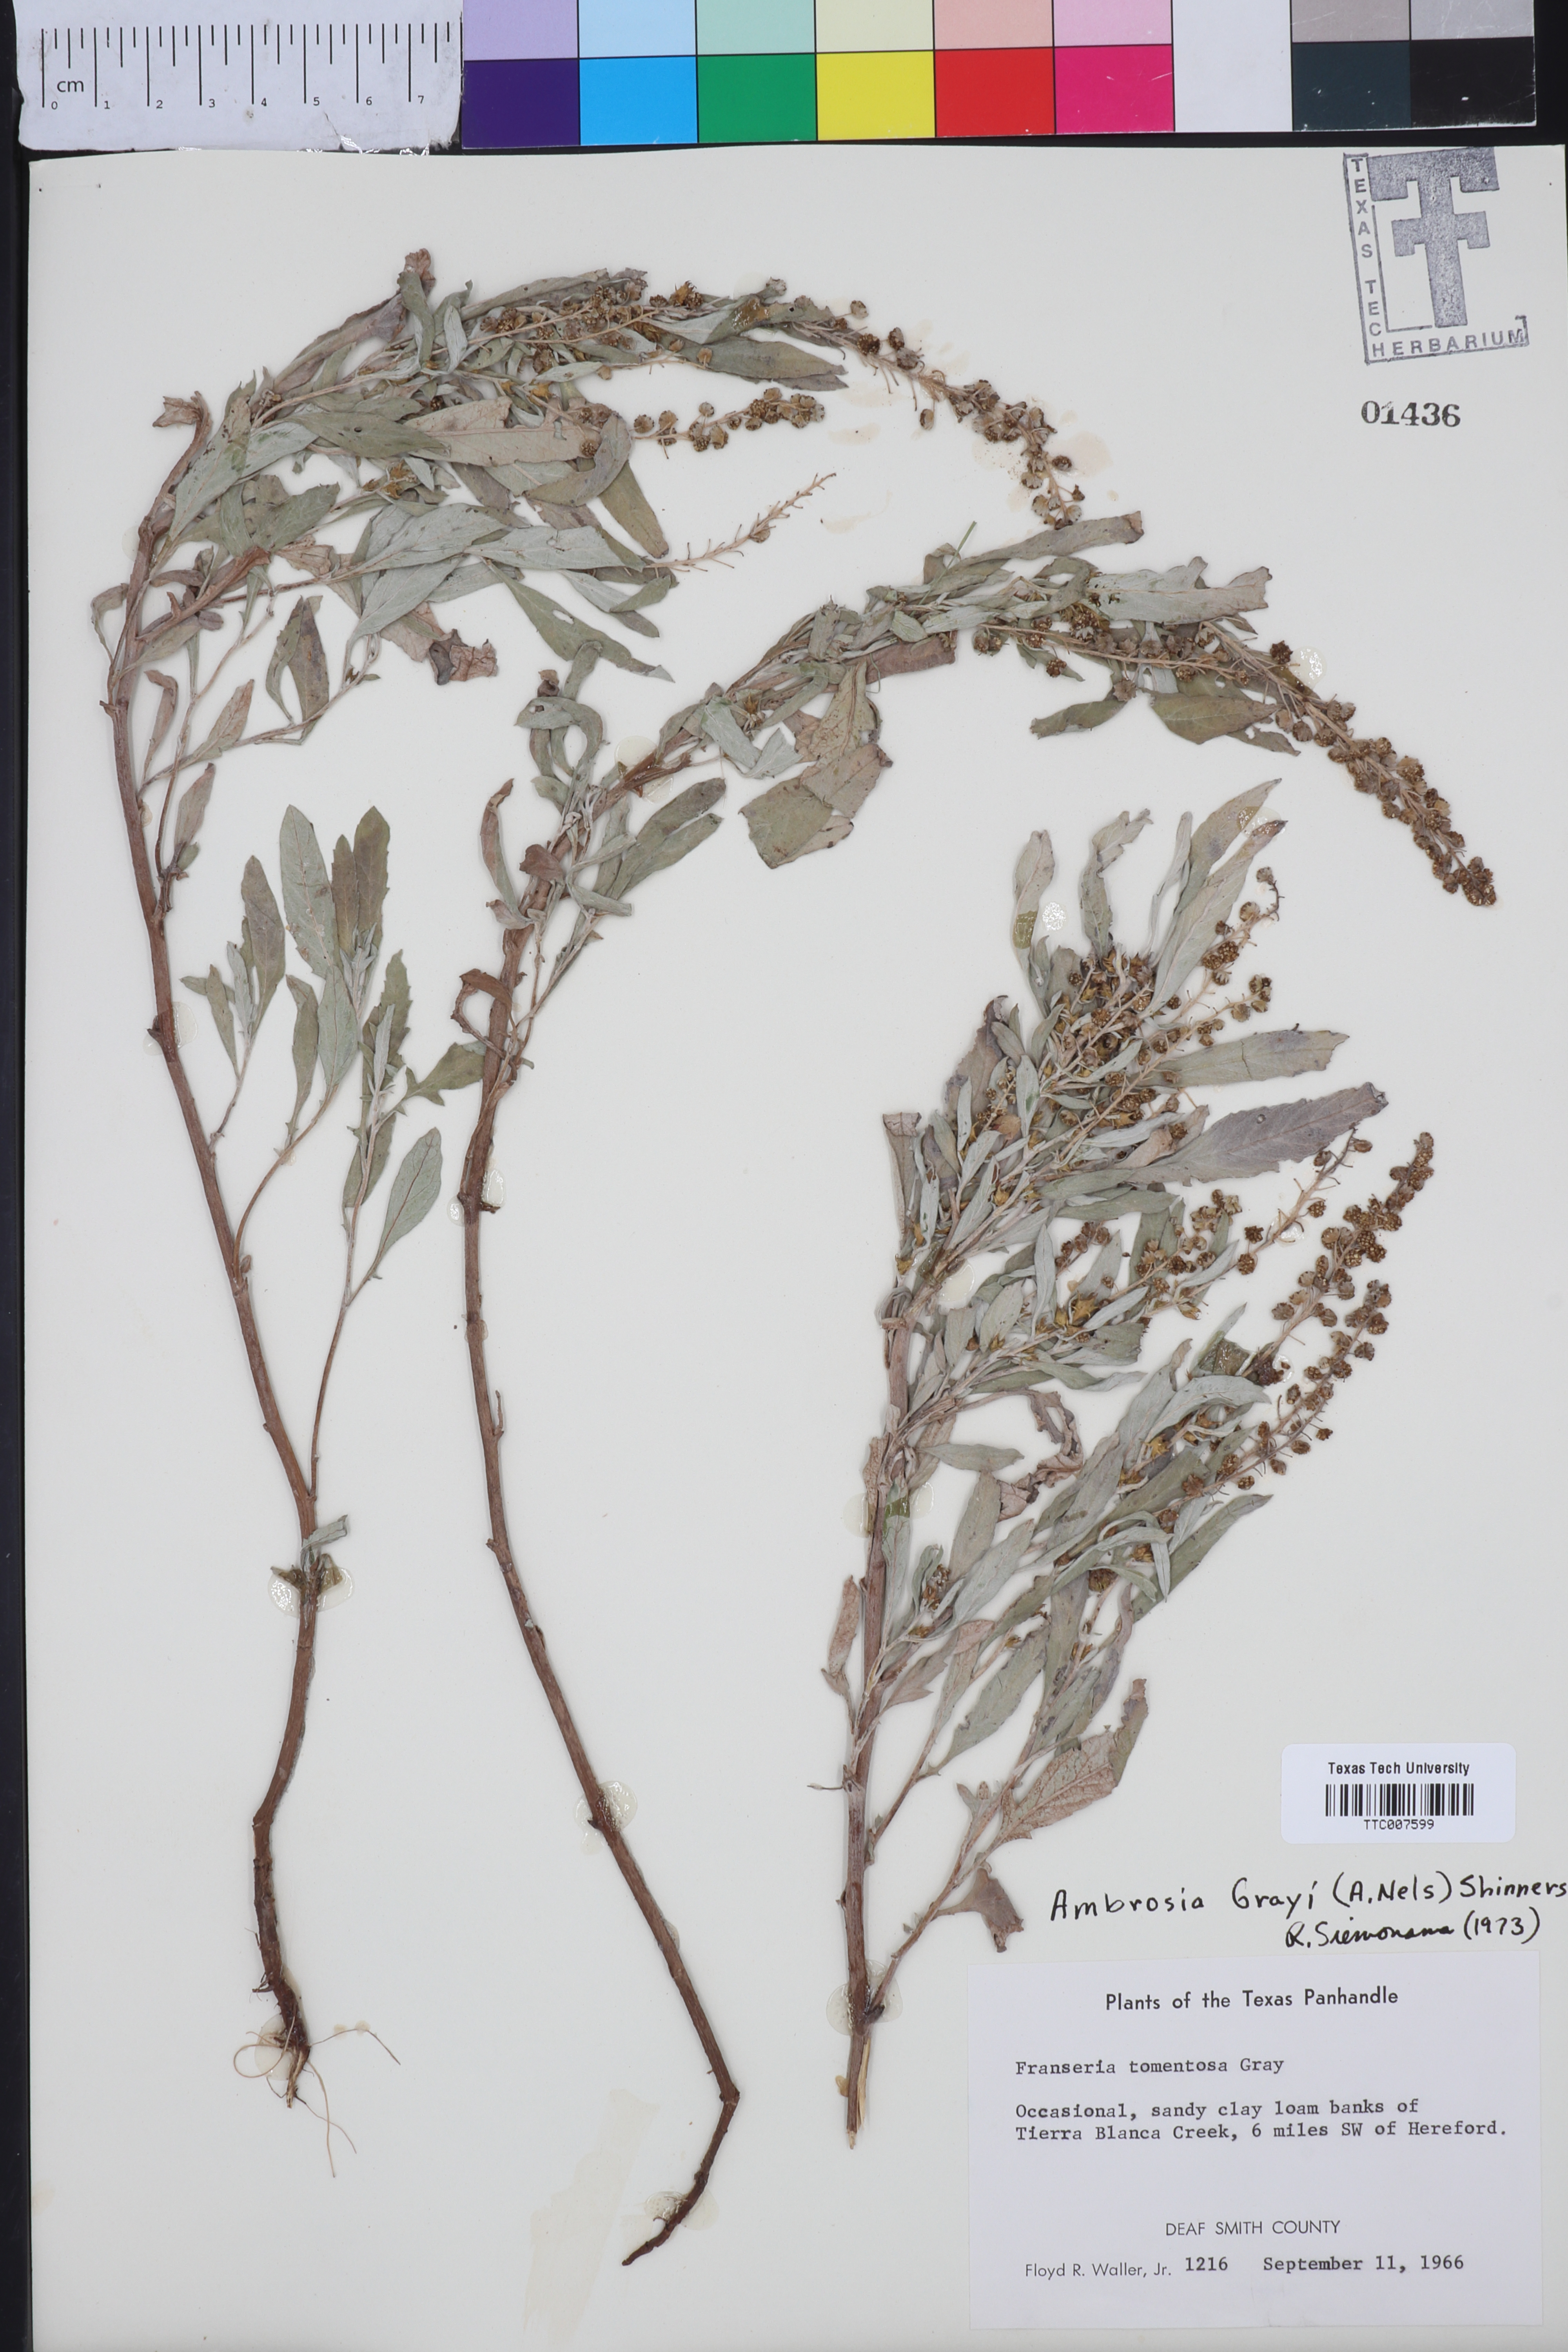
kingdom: Plantae
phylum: Tracheophyta
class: Magnoliopsida
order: Asterales
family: Asteraceae
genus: Ambrosia
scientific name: Ambrosia grayi
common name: Bur ragweed
